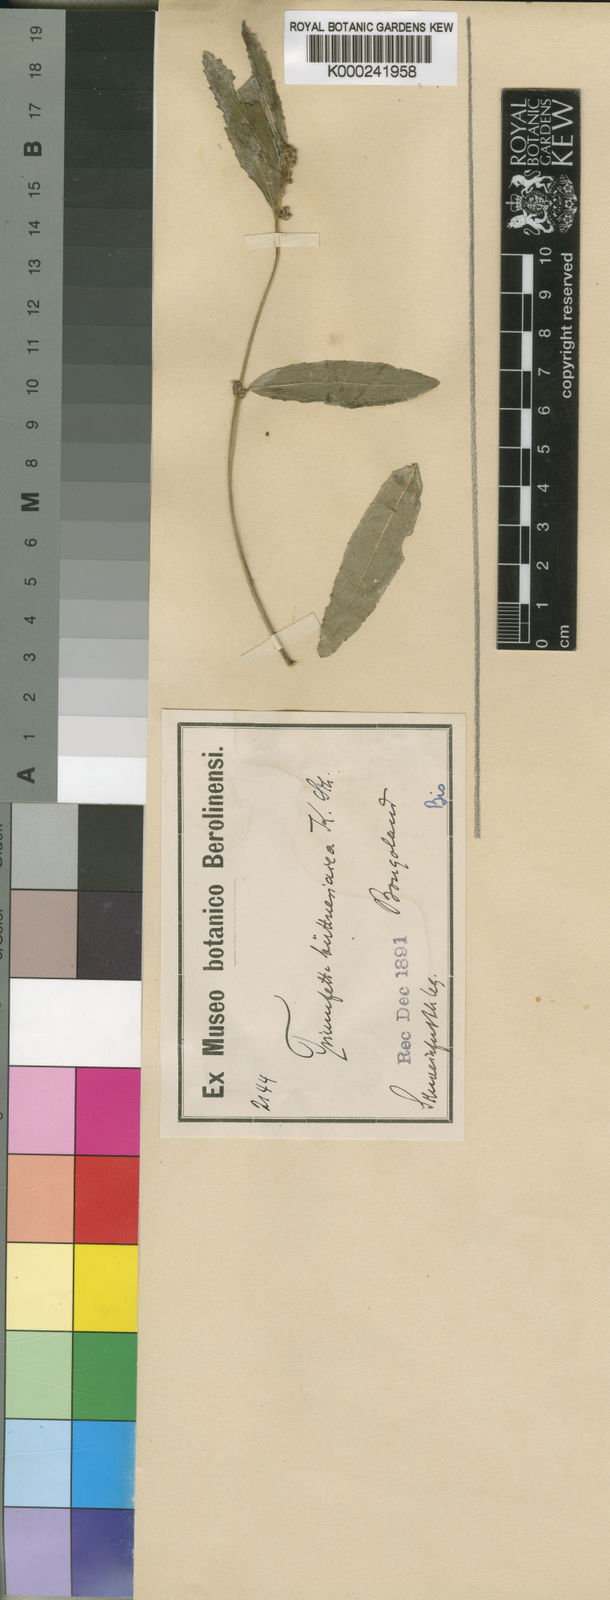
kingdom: Plantae
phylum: Tracheophyta
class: Magnoliopsida
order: Malvales
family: Malvaceae
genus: Triumfetta
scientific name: Triumfetta
